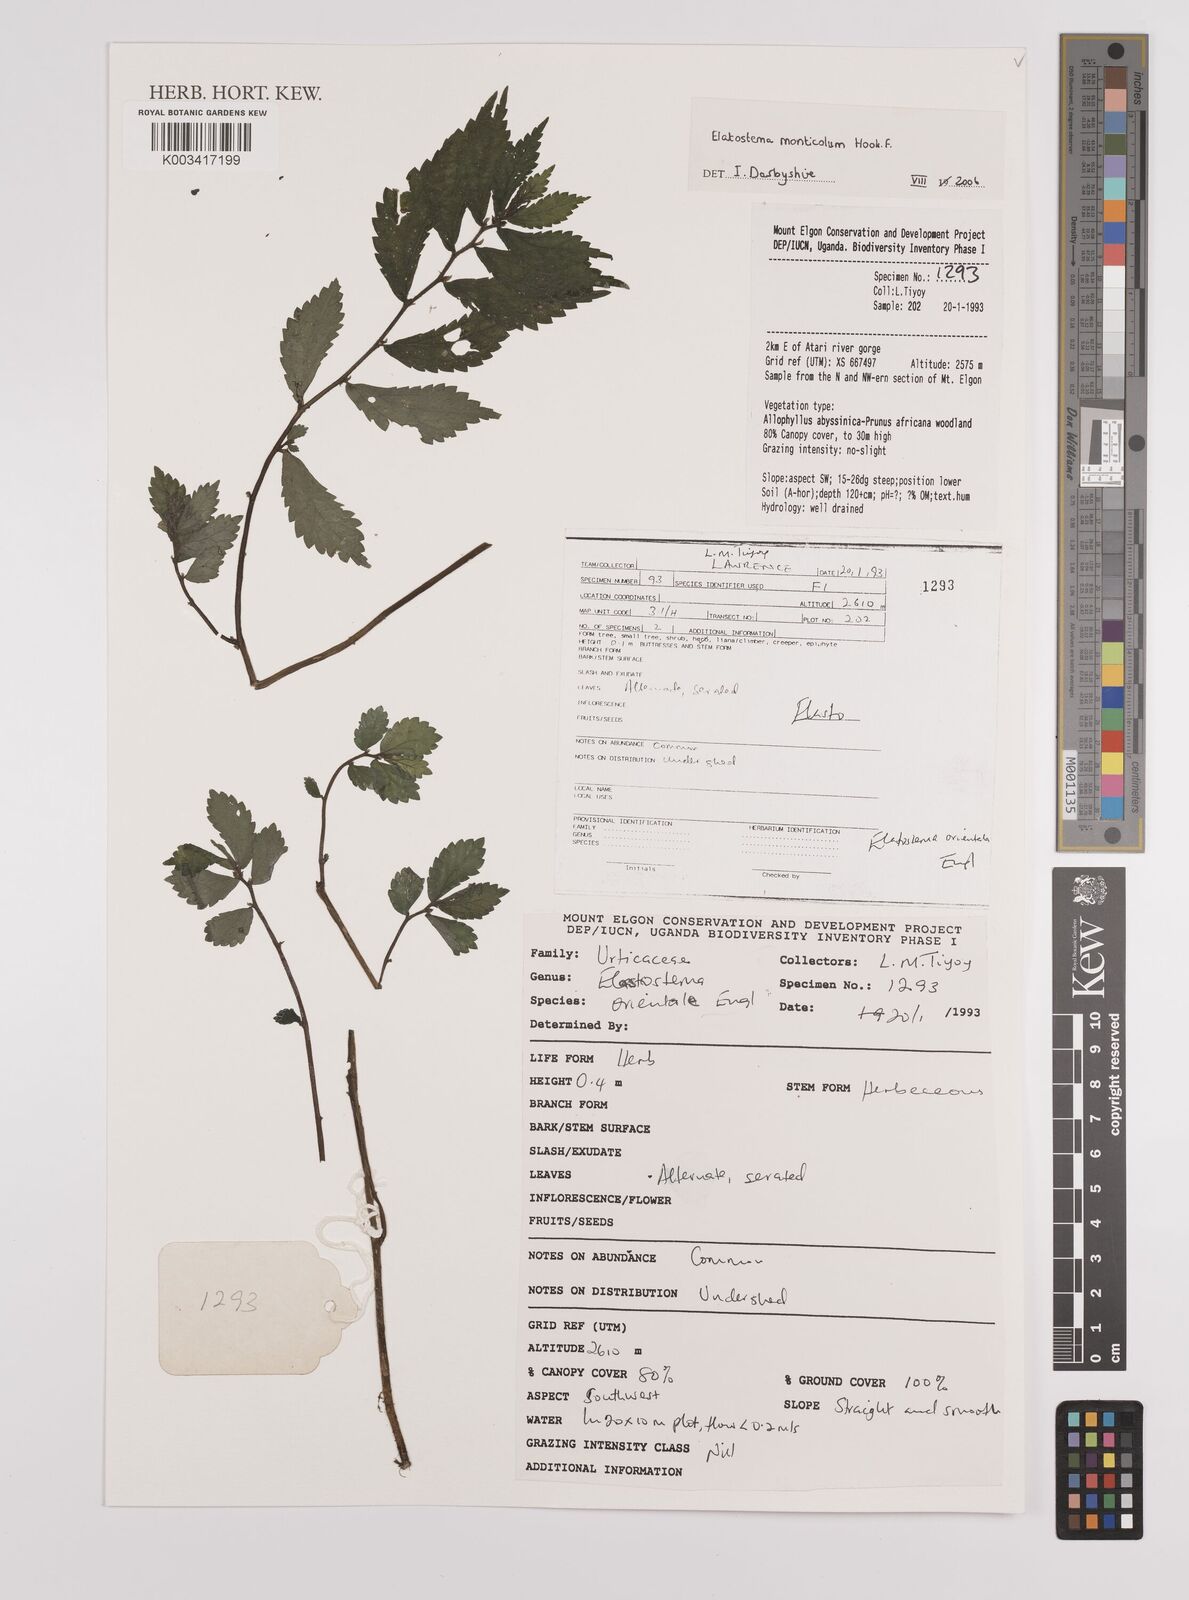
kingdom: Plantae
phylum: Tracheophyta
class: Magnoliopsida
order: Rosales
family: Urticaceae
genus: Elatostema
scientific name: Elatostema monticola
